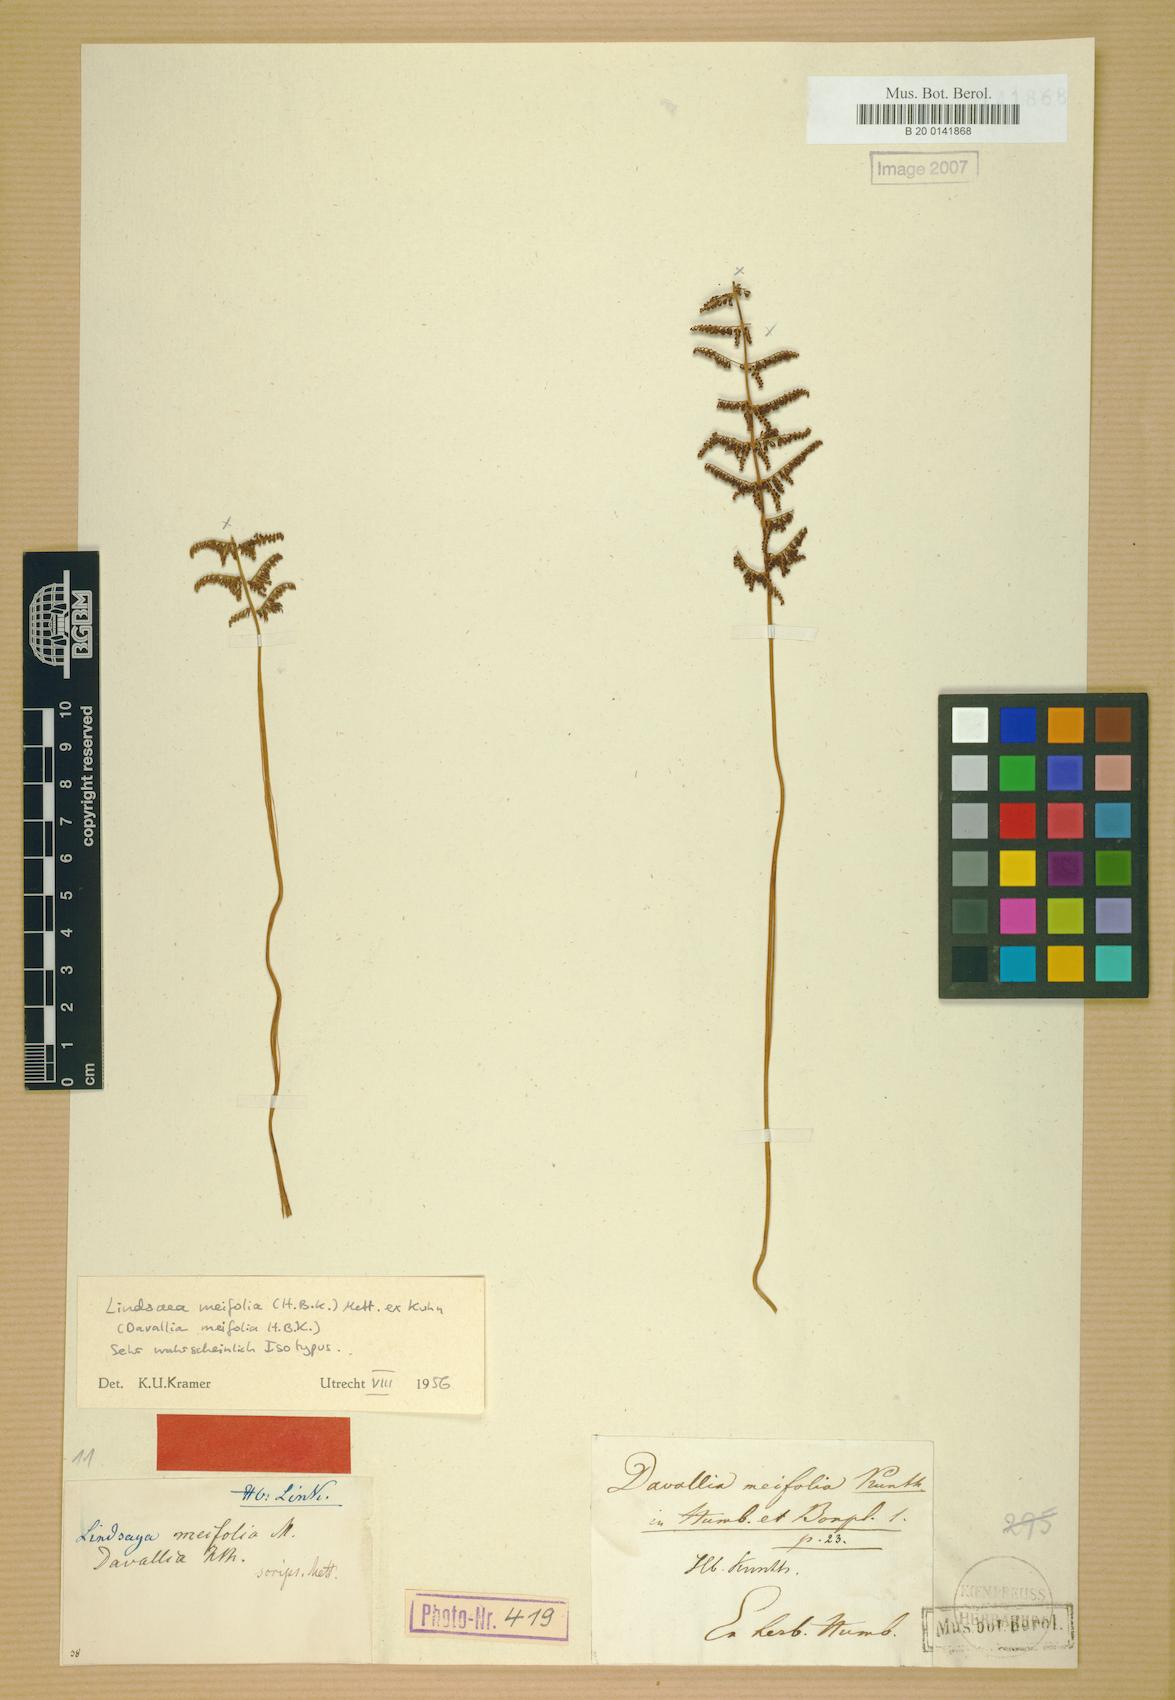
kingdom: Plantae
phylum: Tracheophyta
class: Polypodiopsida
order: Polypodiales
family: Lindsaeaceae
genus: Lindsaea
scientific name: Lindsaea meifolia
